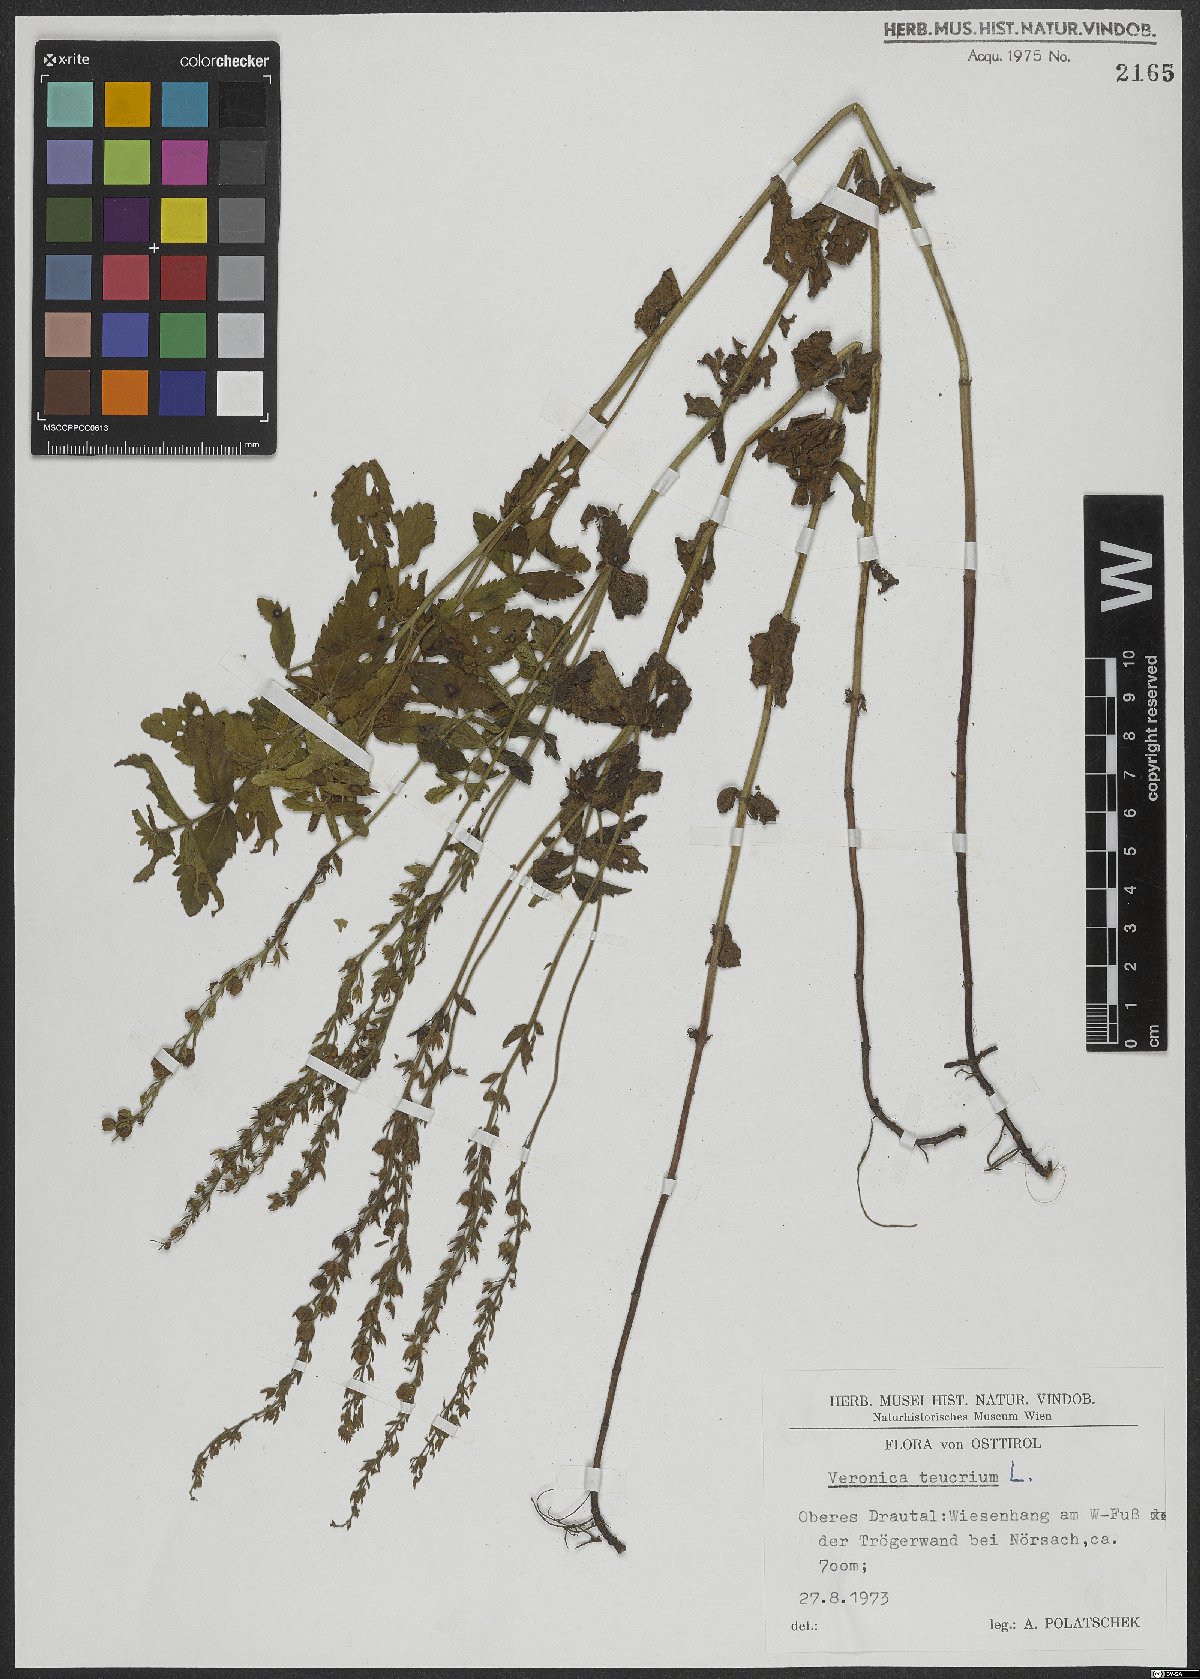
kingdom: Plantae
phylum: Tracheophyta
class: Magnoliopsida
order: Lamiales
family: Plantaginaceae
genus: Veronica
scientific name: Veronica teucrium
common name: Large speedwell
